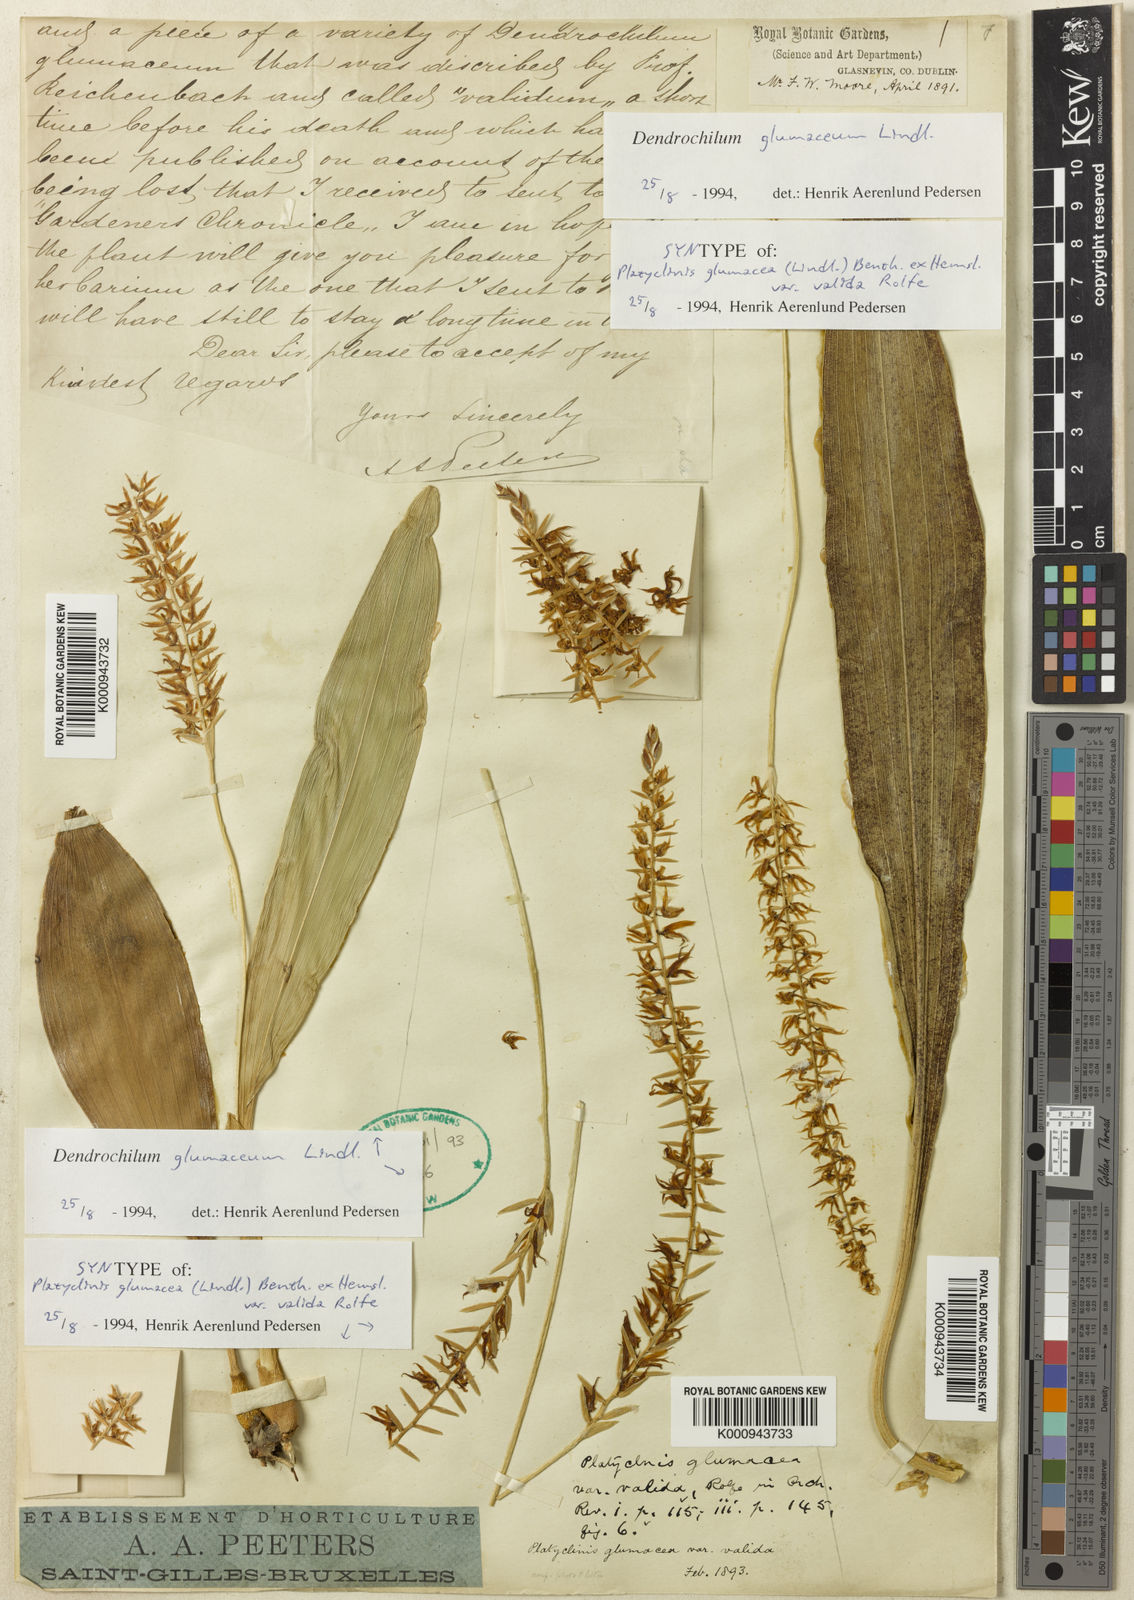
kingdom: Plantae
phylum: Tracheophyta
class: Liliopsida
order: Asparagales
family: Orchidaceae
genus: Coelogyne
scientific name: Coelogyne uncata
